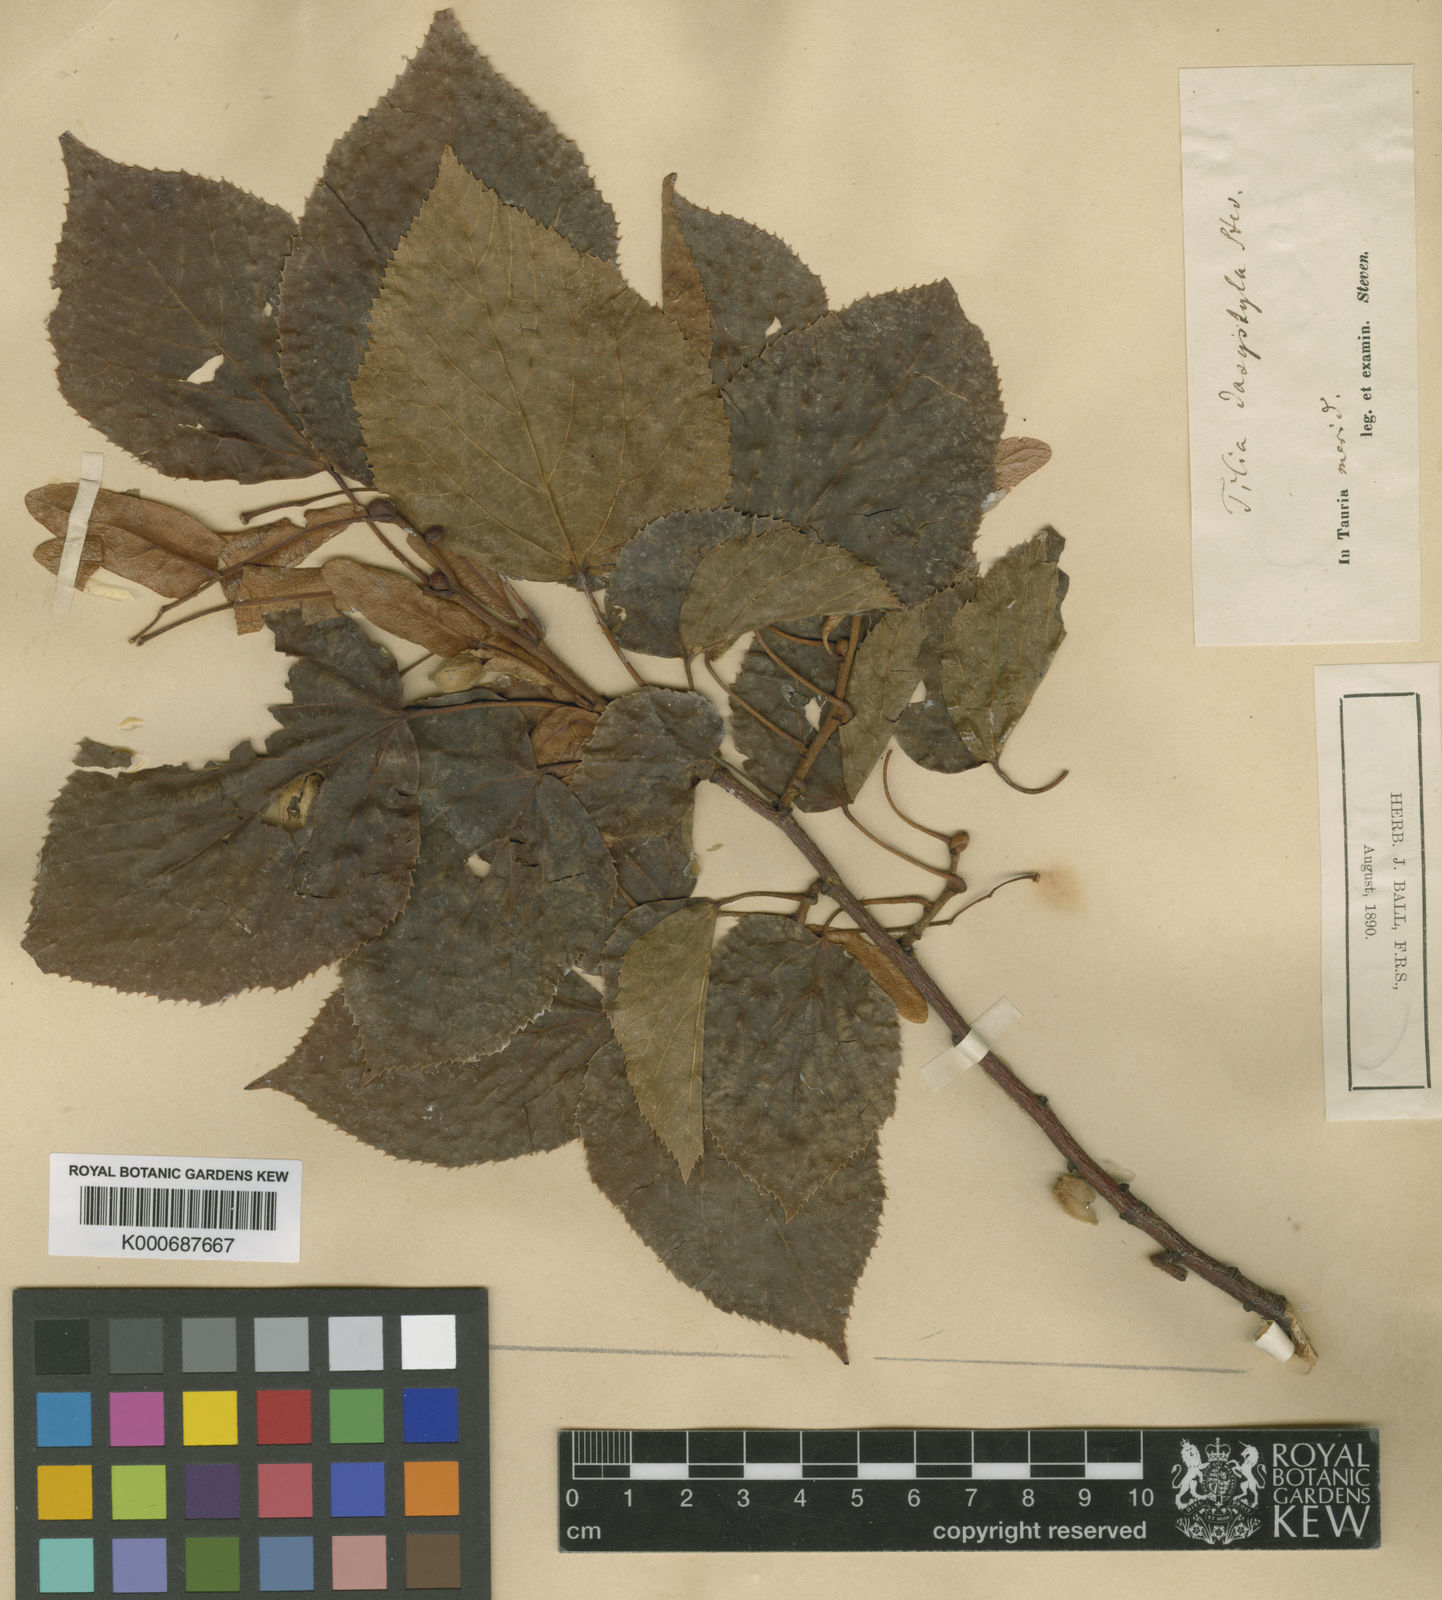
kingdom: Plantae
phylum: Tracheophyta
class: Magnoliopsida
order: Malvales
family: Malvaceae
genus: Tilia
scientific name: Tilia dasystyla
